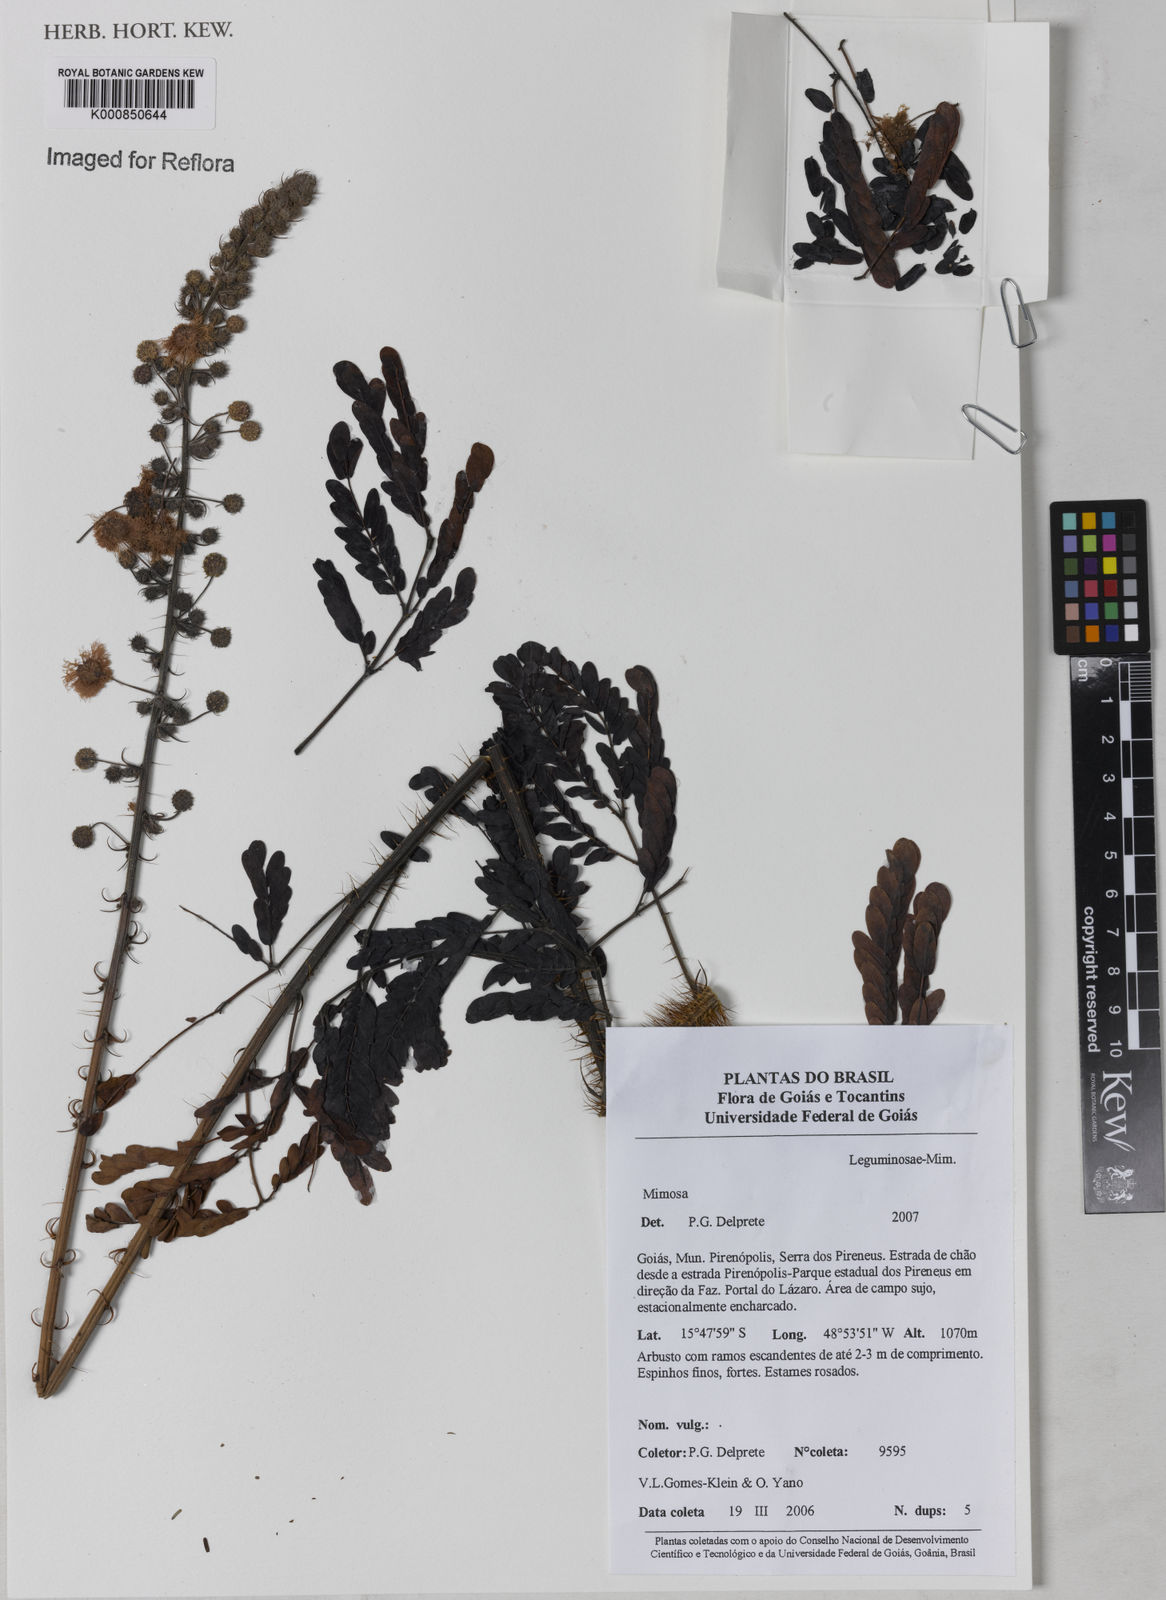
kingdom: Plantae
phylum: Tracheophyta
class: Magnoliopsida
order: Fabales
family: Fabaceae
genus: Mimosa
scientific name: Mimosa echinocaula
